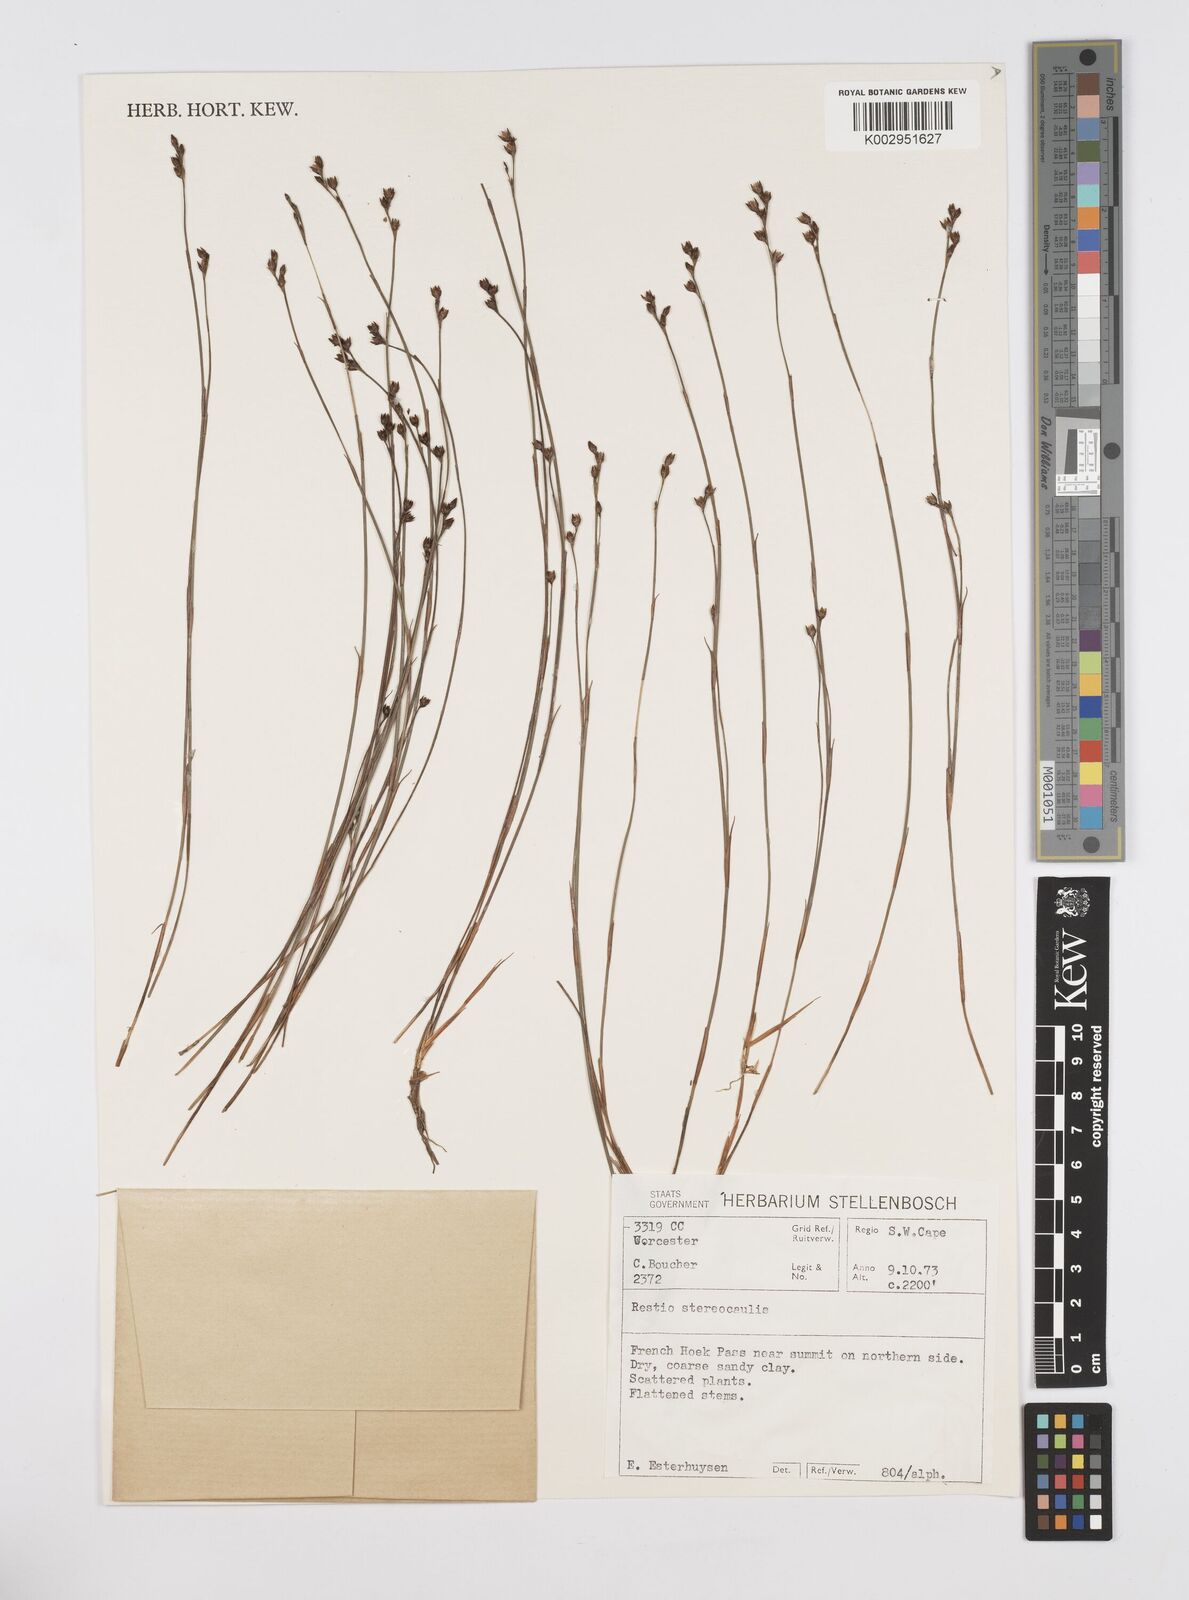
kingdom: Plantae
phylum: Tracheophyta
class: Liliopsida
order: Poales
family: Restionaceae
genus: Restio
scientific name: Restio stereocaulis
